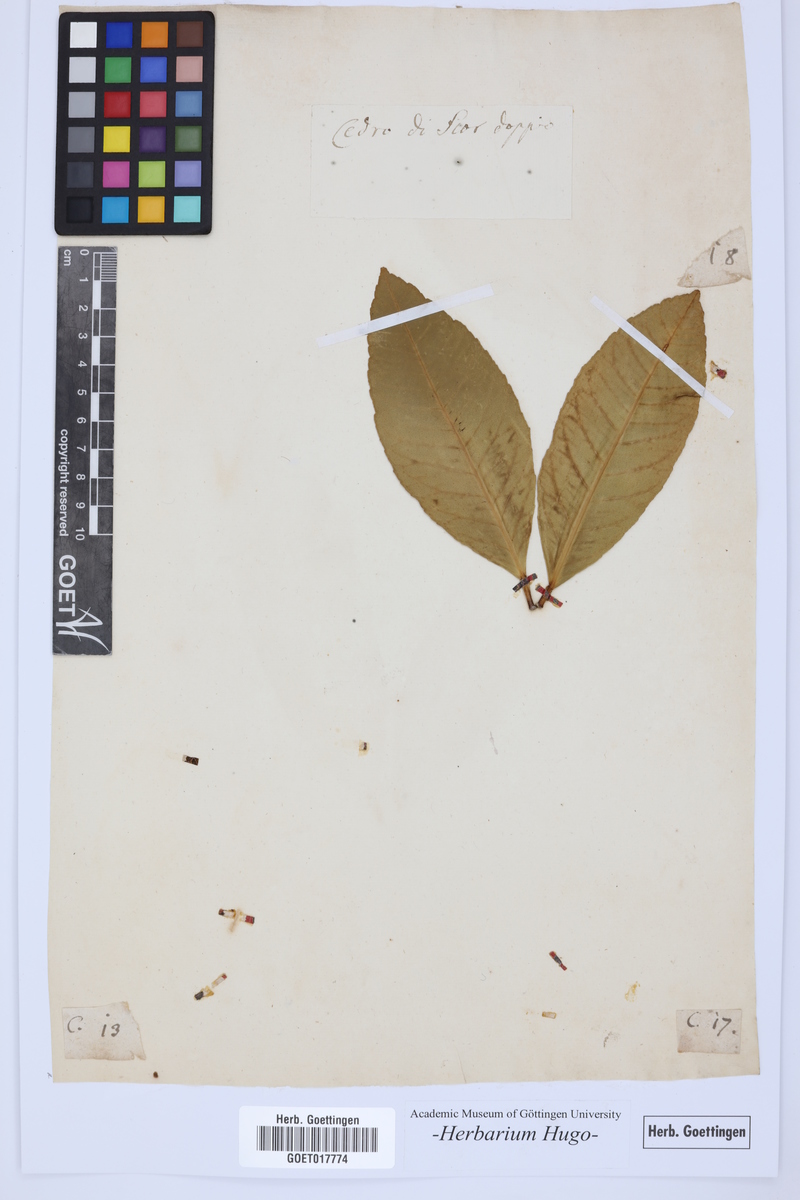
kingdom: Plantae
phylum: Tracheophyta
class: Magnoliopsida
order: Sapindales
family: Rutaceae
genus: Citrus
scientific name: Citrus
